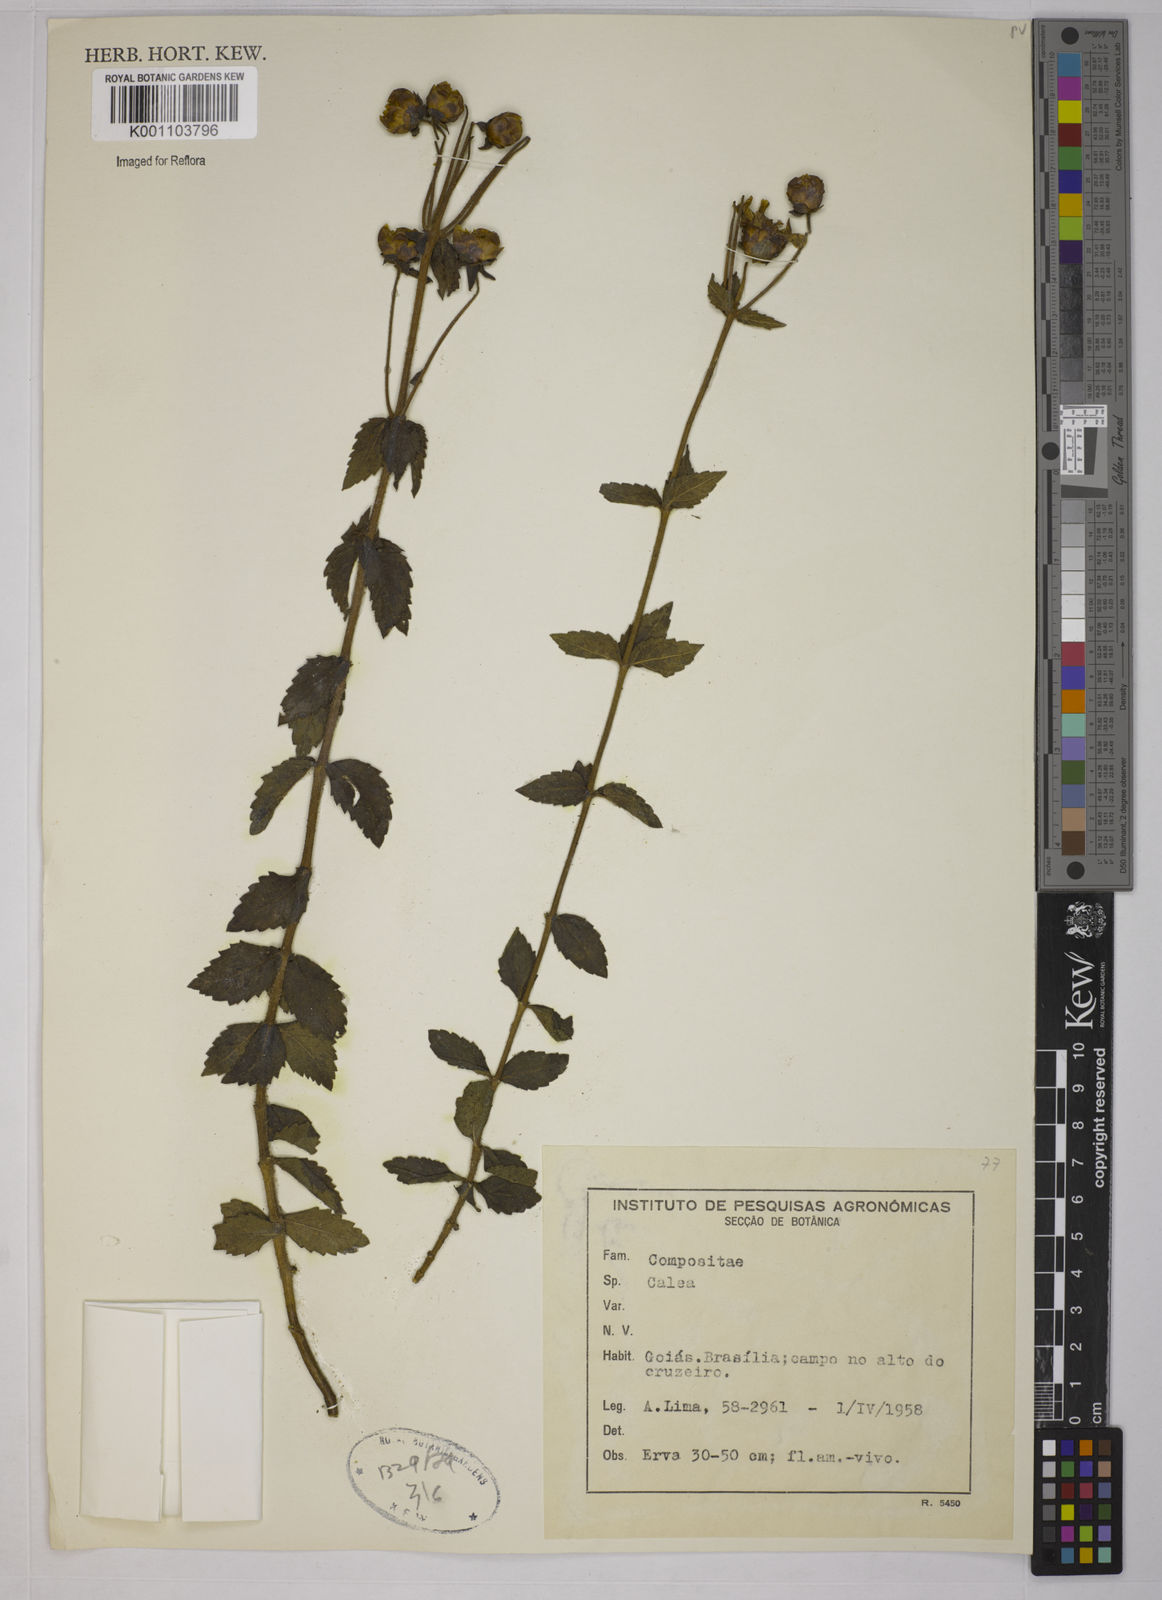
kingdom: Plantae
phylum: Tracheophyta
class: Magnoliopsida
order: Asterales
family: Asteraceae
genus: Calea
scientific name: Calea
